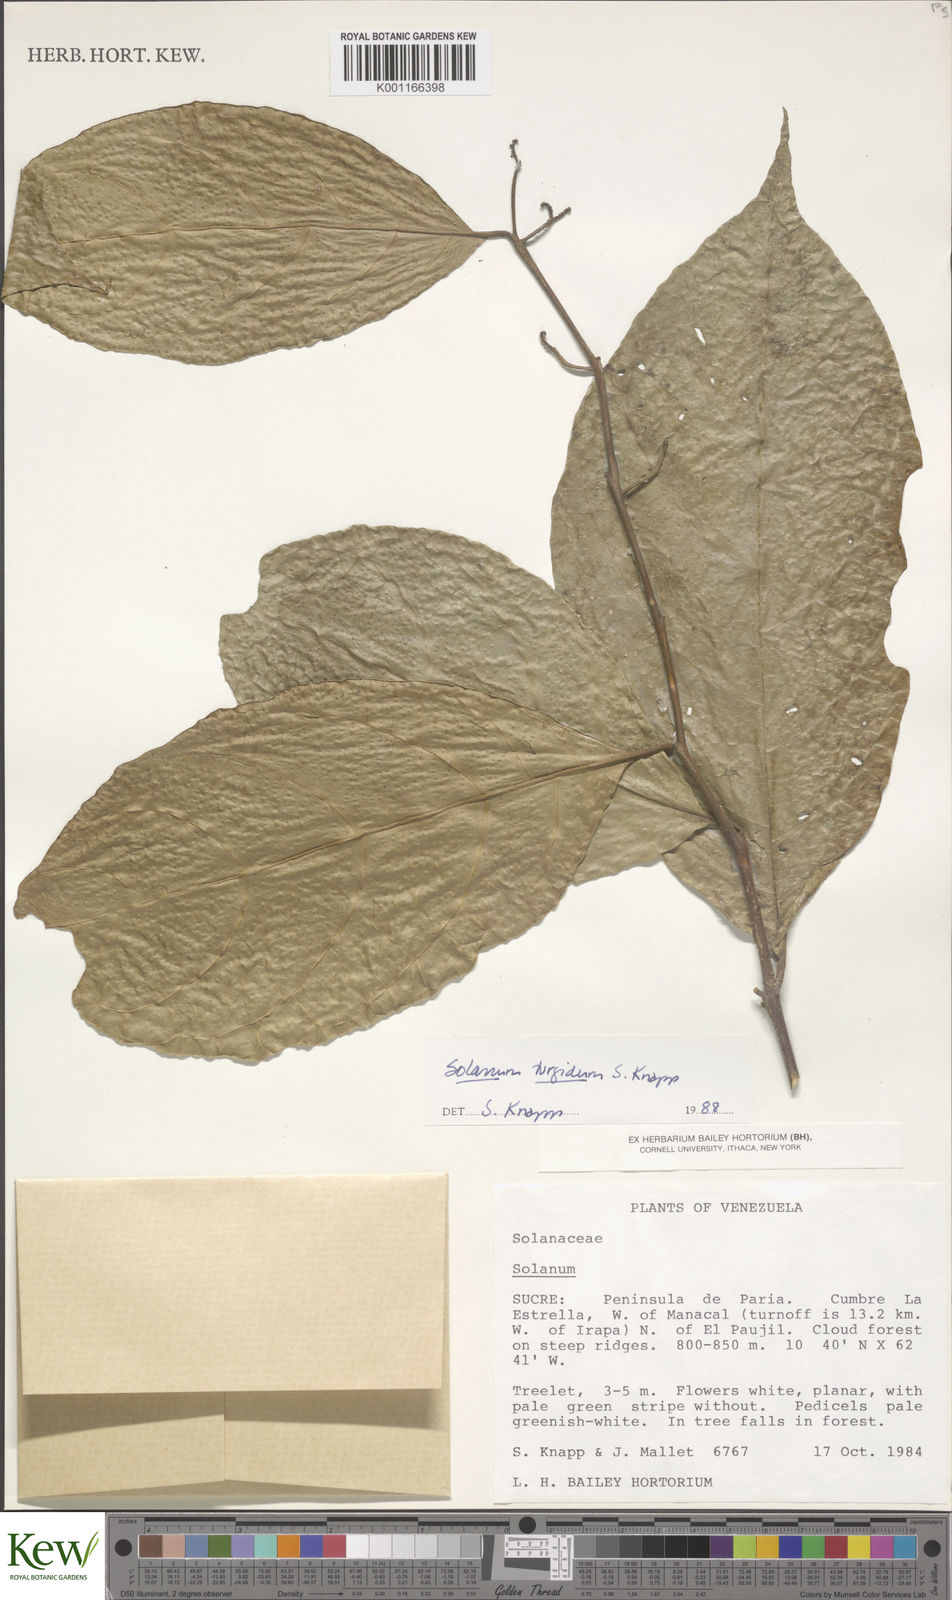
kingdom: Plantae
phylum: Tracheophyta
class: Magnoliopsida
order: Solanales
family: Solanaceae
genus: Solanum
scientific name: Solanum turgidum
